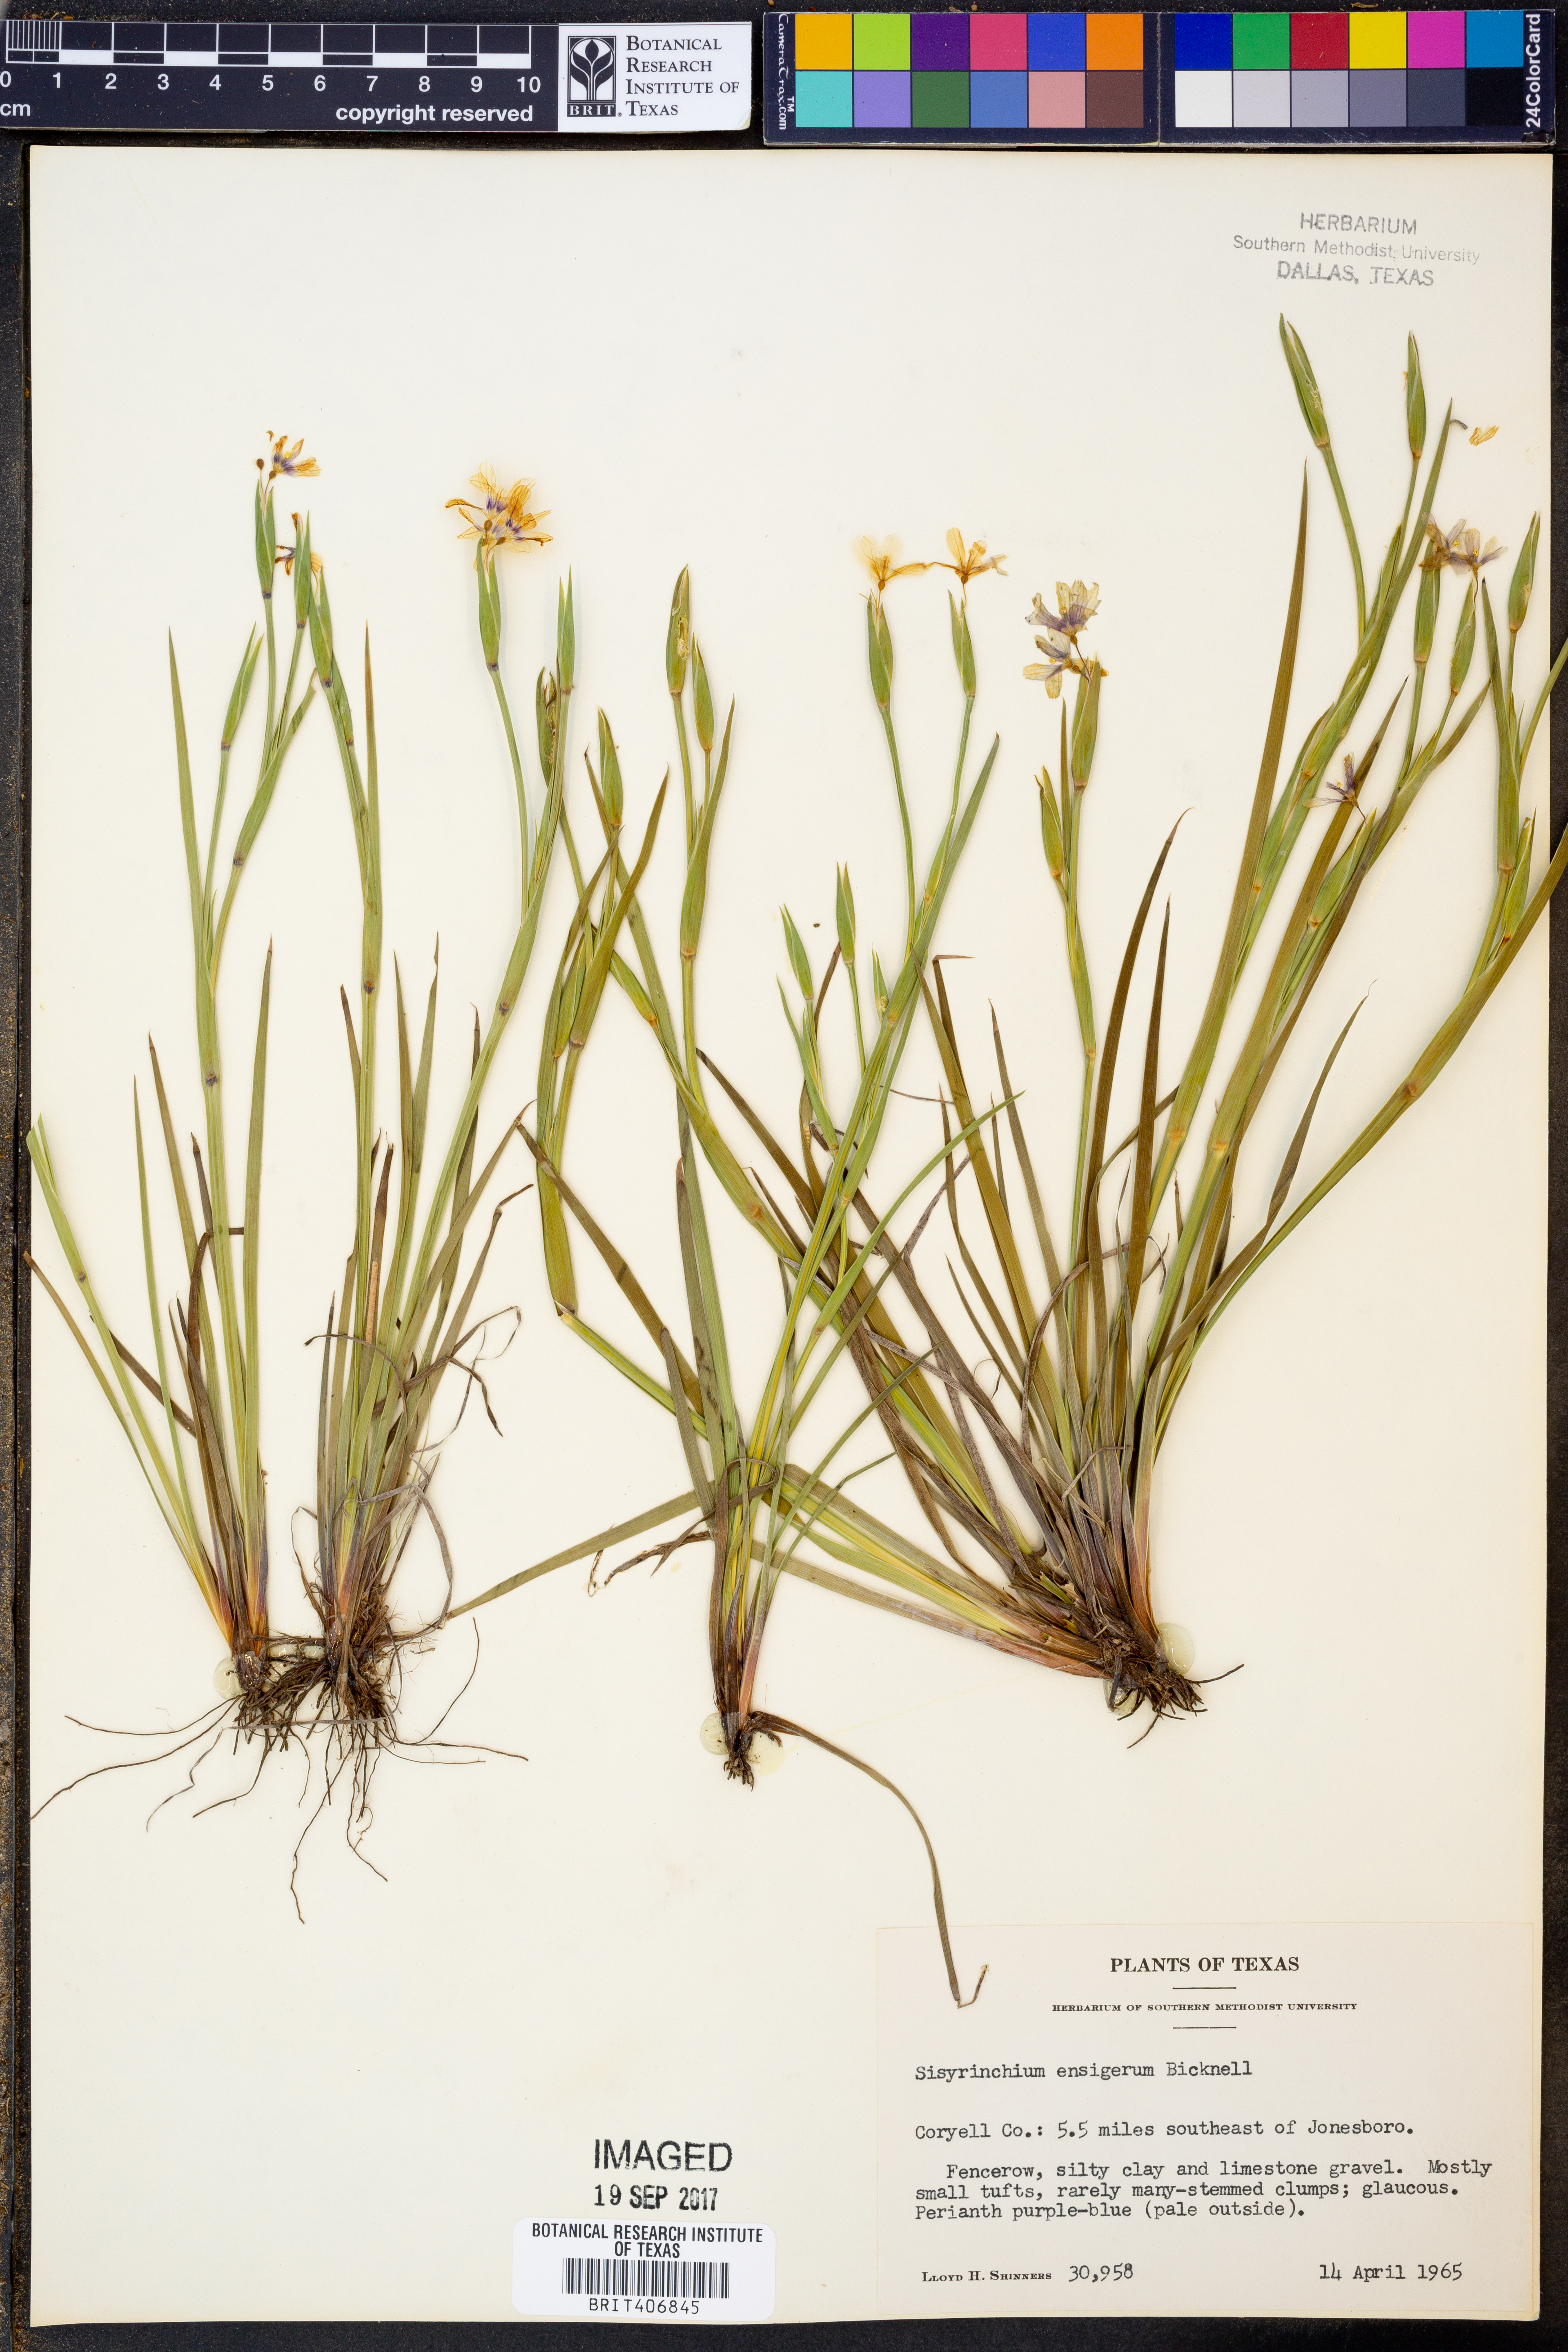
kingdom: Plantae
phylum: Tracheophyta
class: Liliopsida
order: Asparagales
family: Iridaceae
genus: Sisyrinchium
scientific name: Sisyrinchium ensigerum
